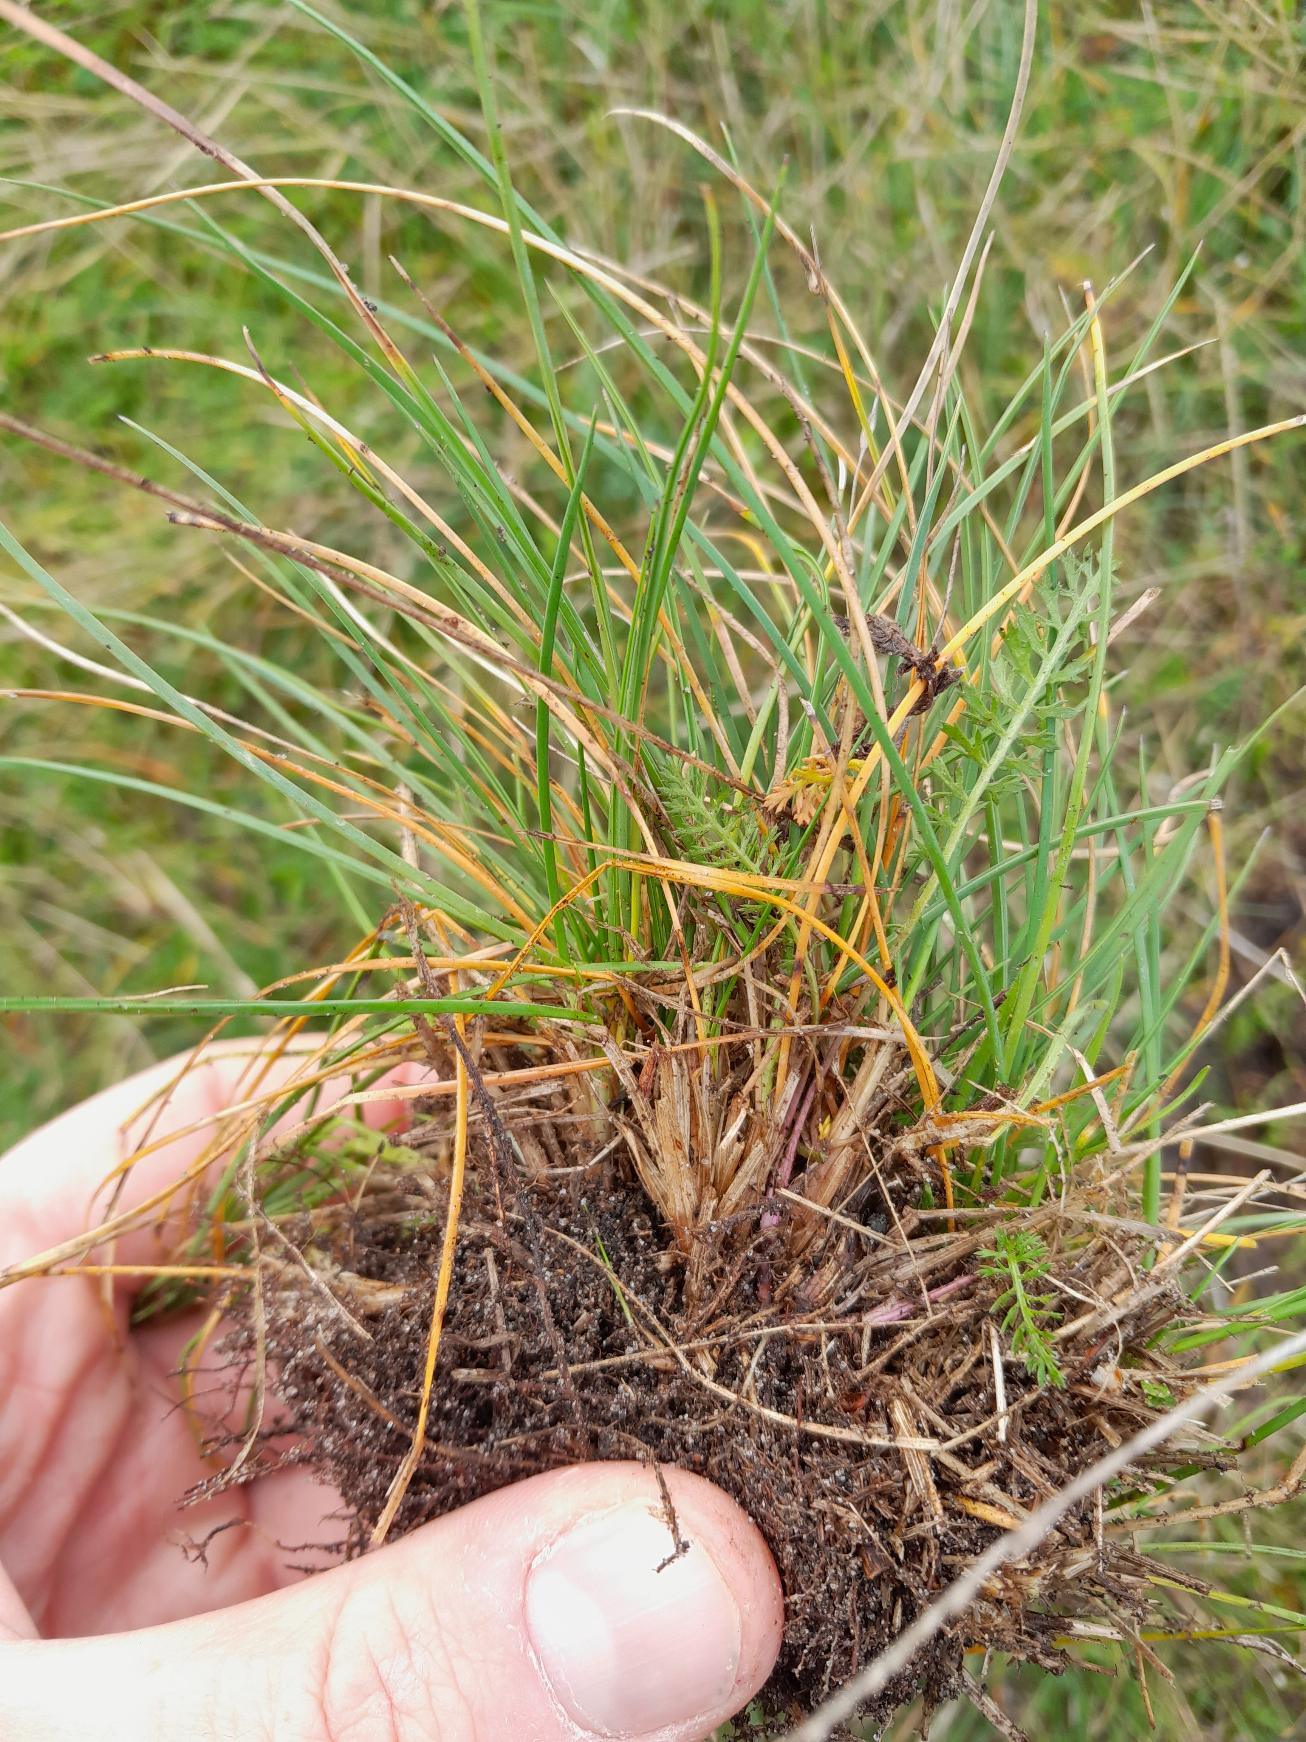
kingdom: Plantae
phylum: Tracheophyta
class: Liliopsida
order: Poales
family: Poaceae
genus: Festuca
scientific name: Festuca trachyphylla
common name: Bakke-svingel
